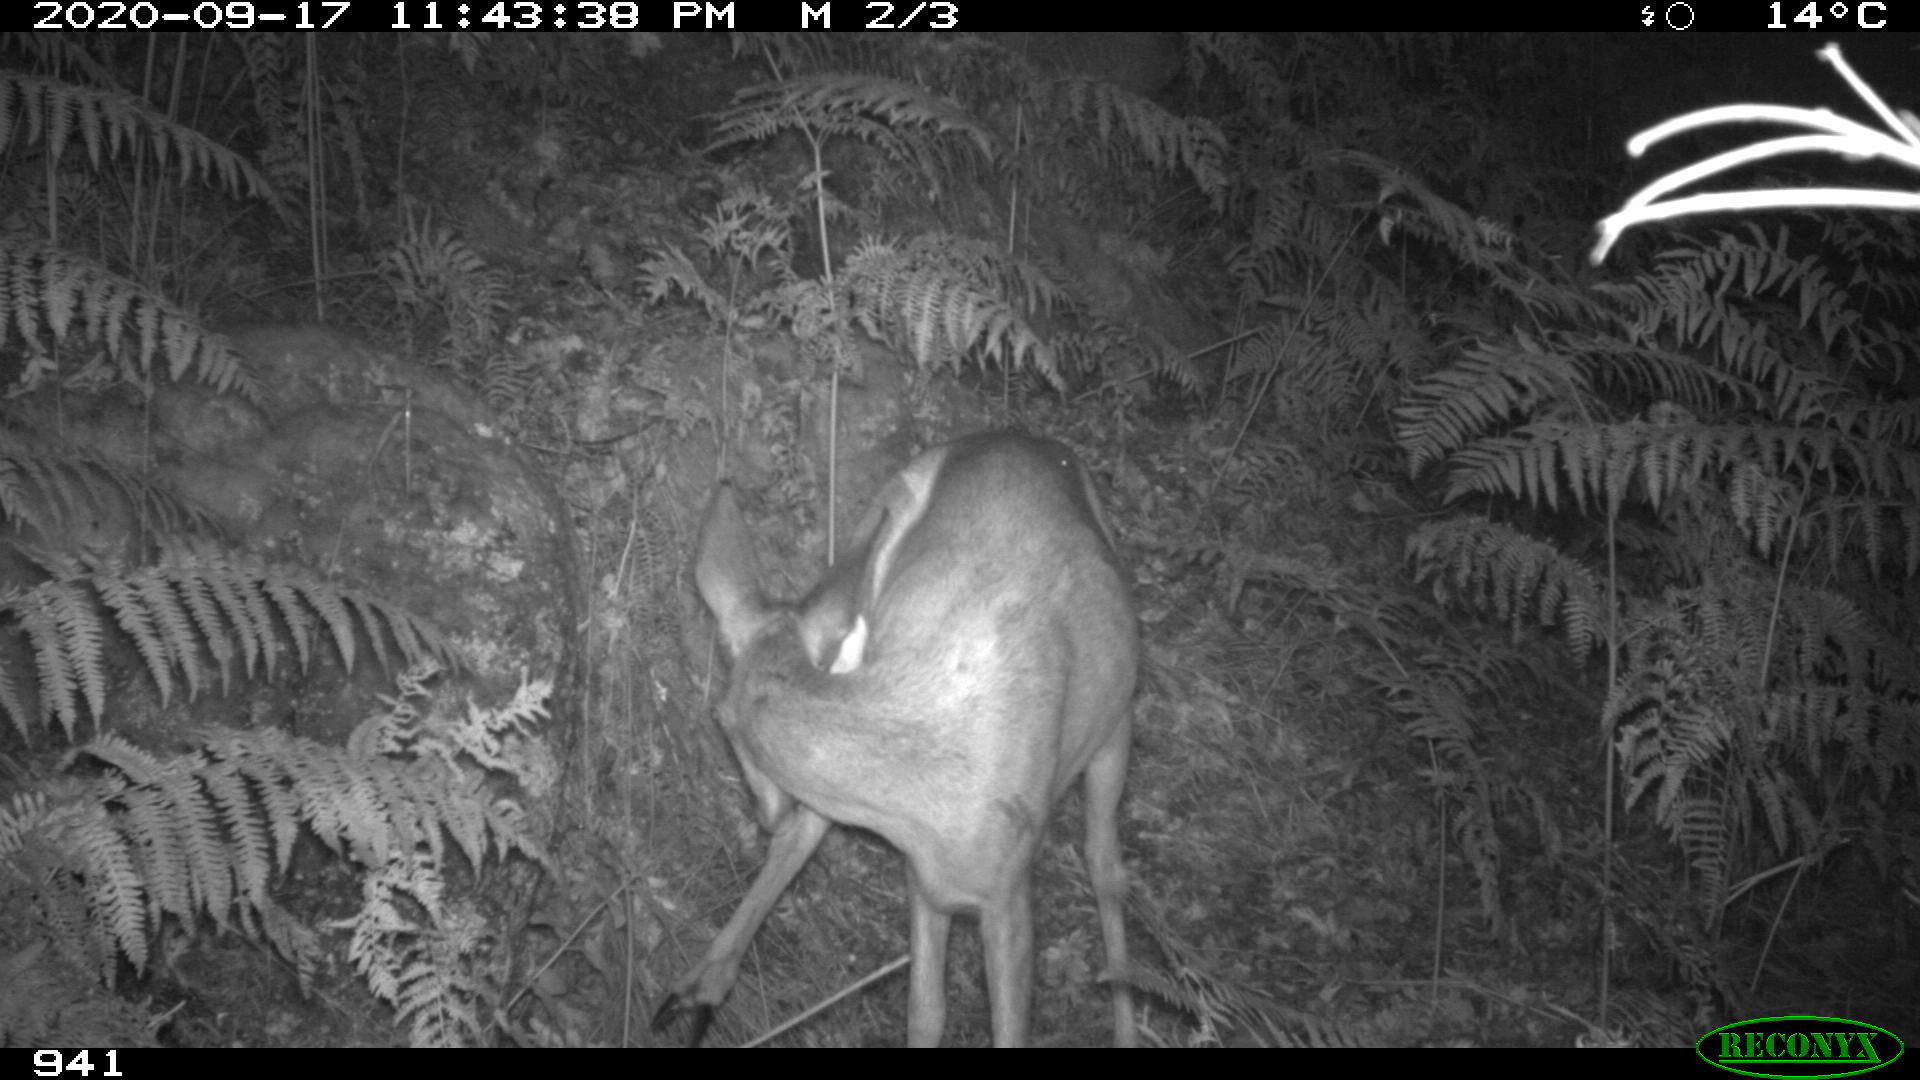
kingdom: Animalia
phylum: Chordata
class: Mammalia
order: Artiodactyla
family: Cervidae
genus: Capreolus
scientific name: Capreolus capreolus
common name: Western roe deer
